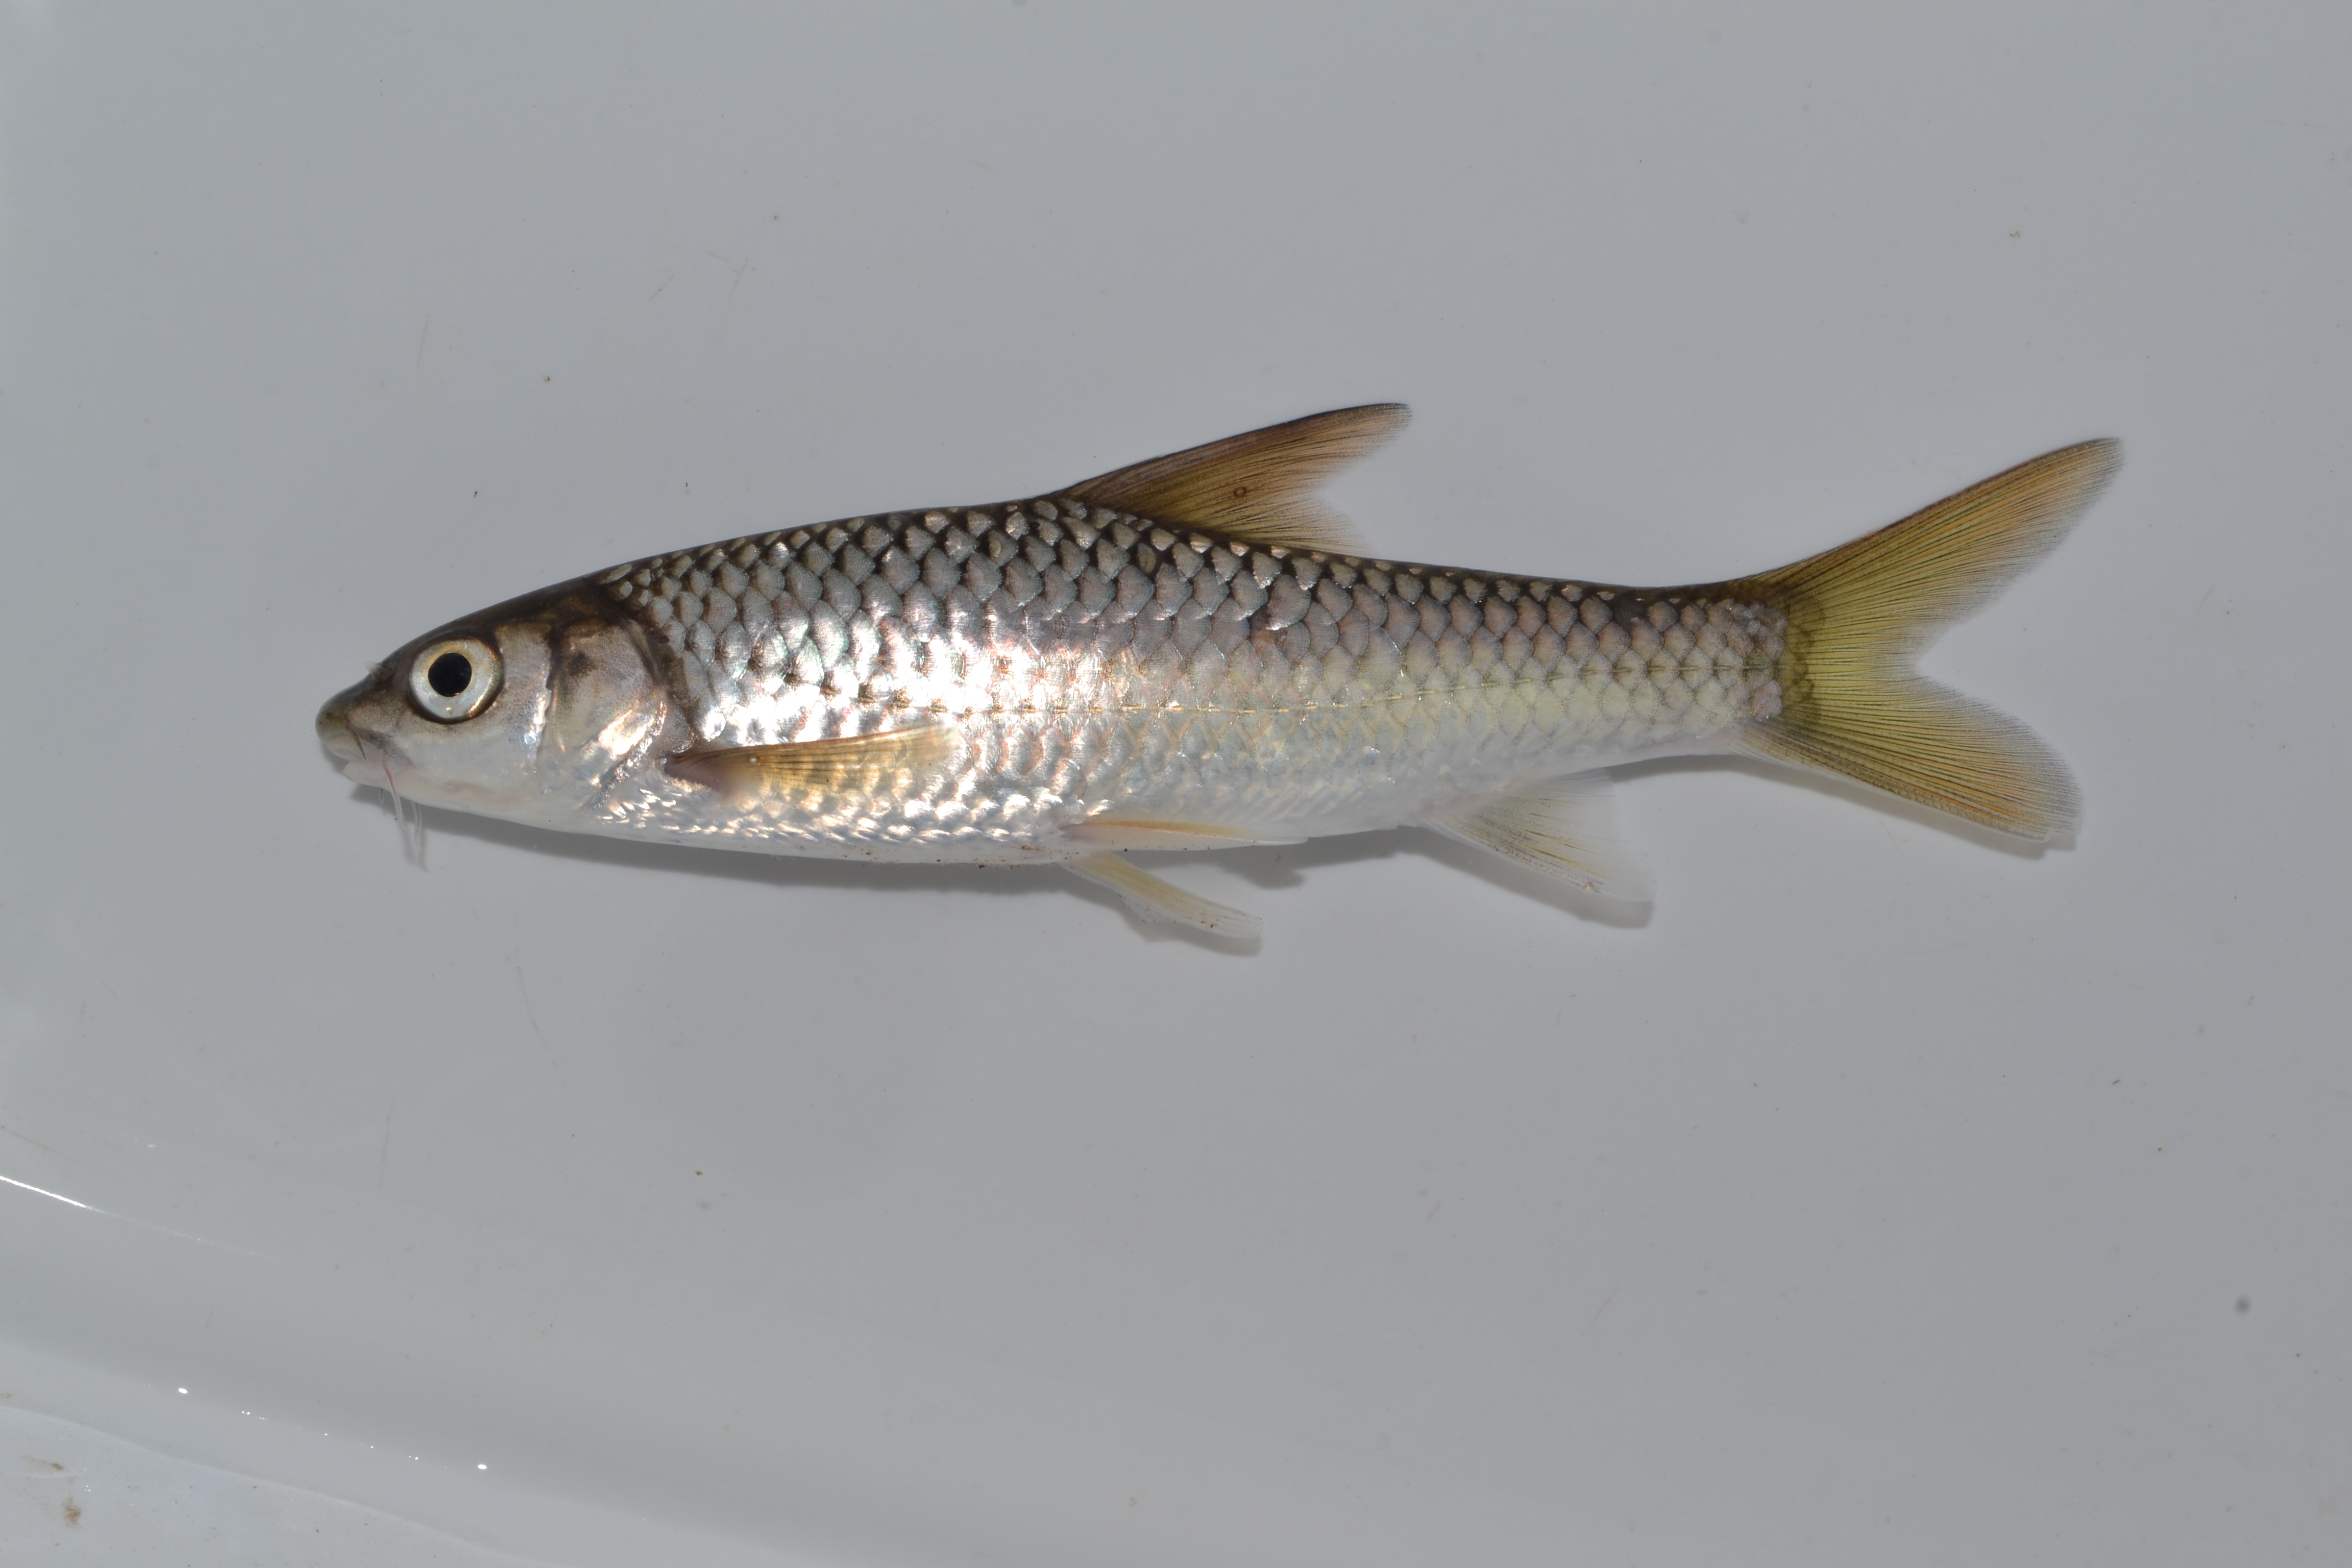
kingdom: Animalia
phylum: Chordata
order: Cypriniformes
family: Cyprinidae
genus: Labeobarbus
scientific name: Labeobarbus natalensis
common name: Scaly
